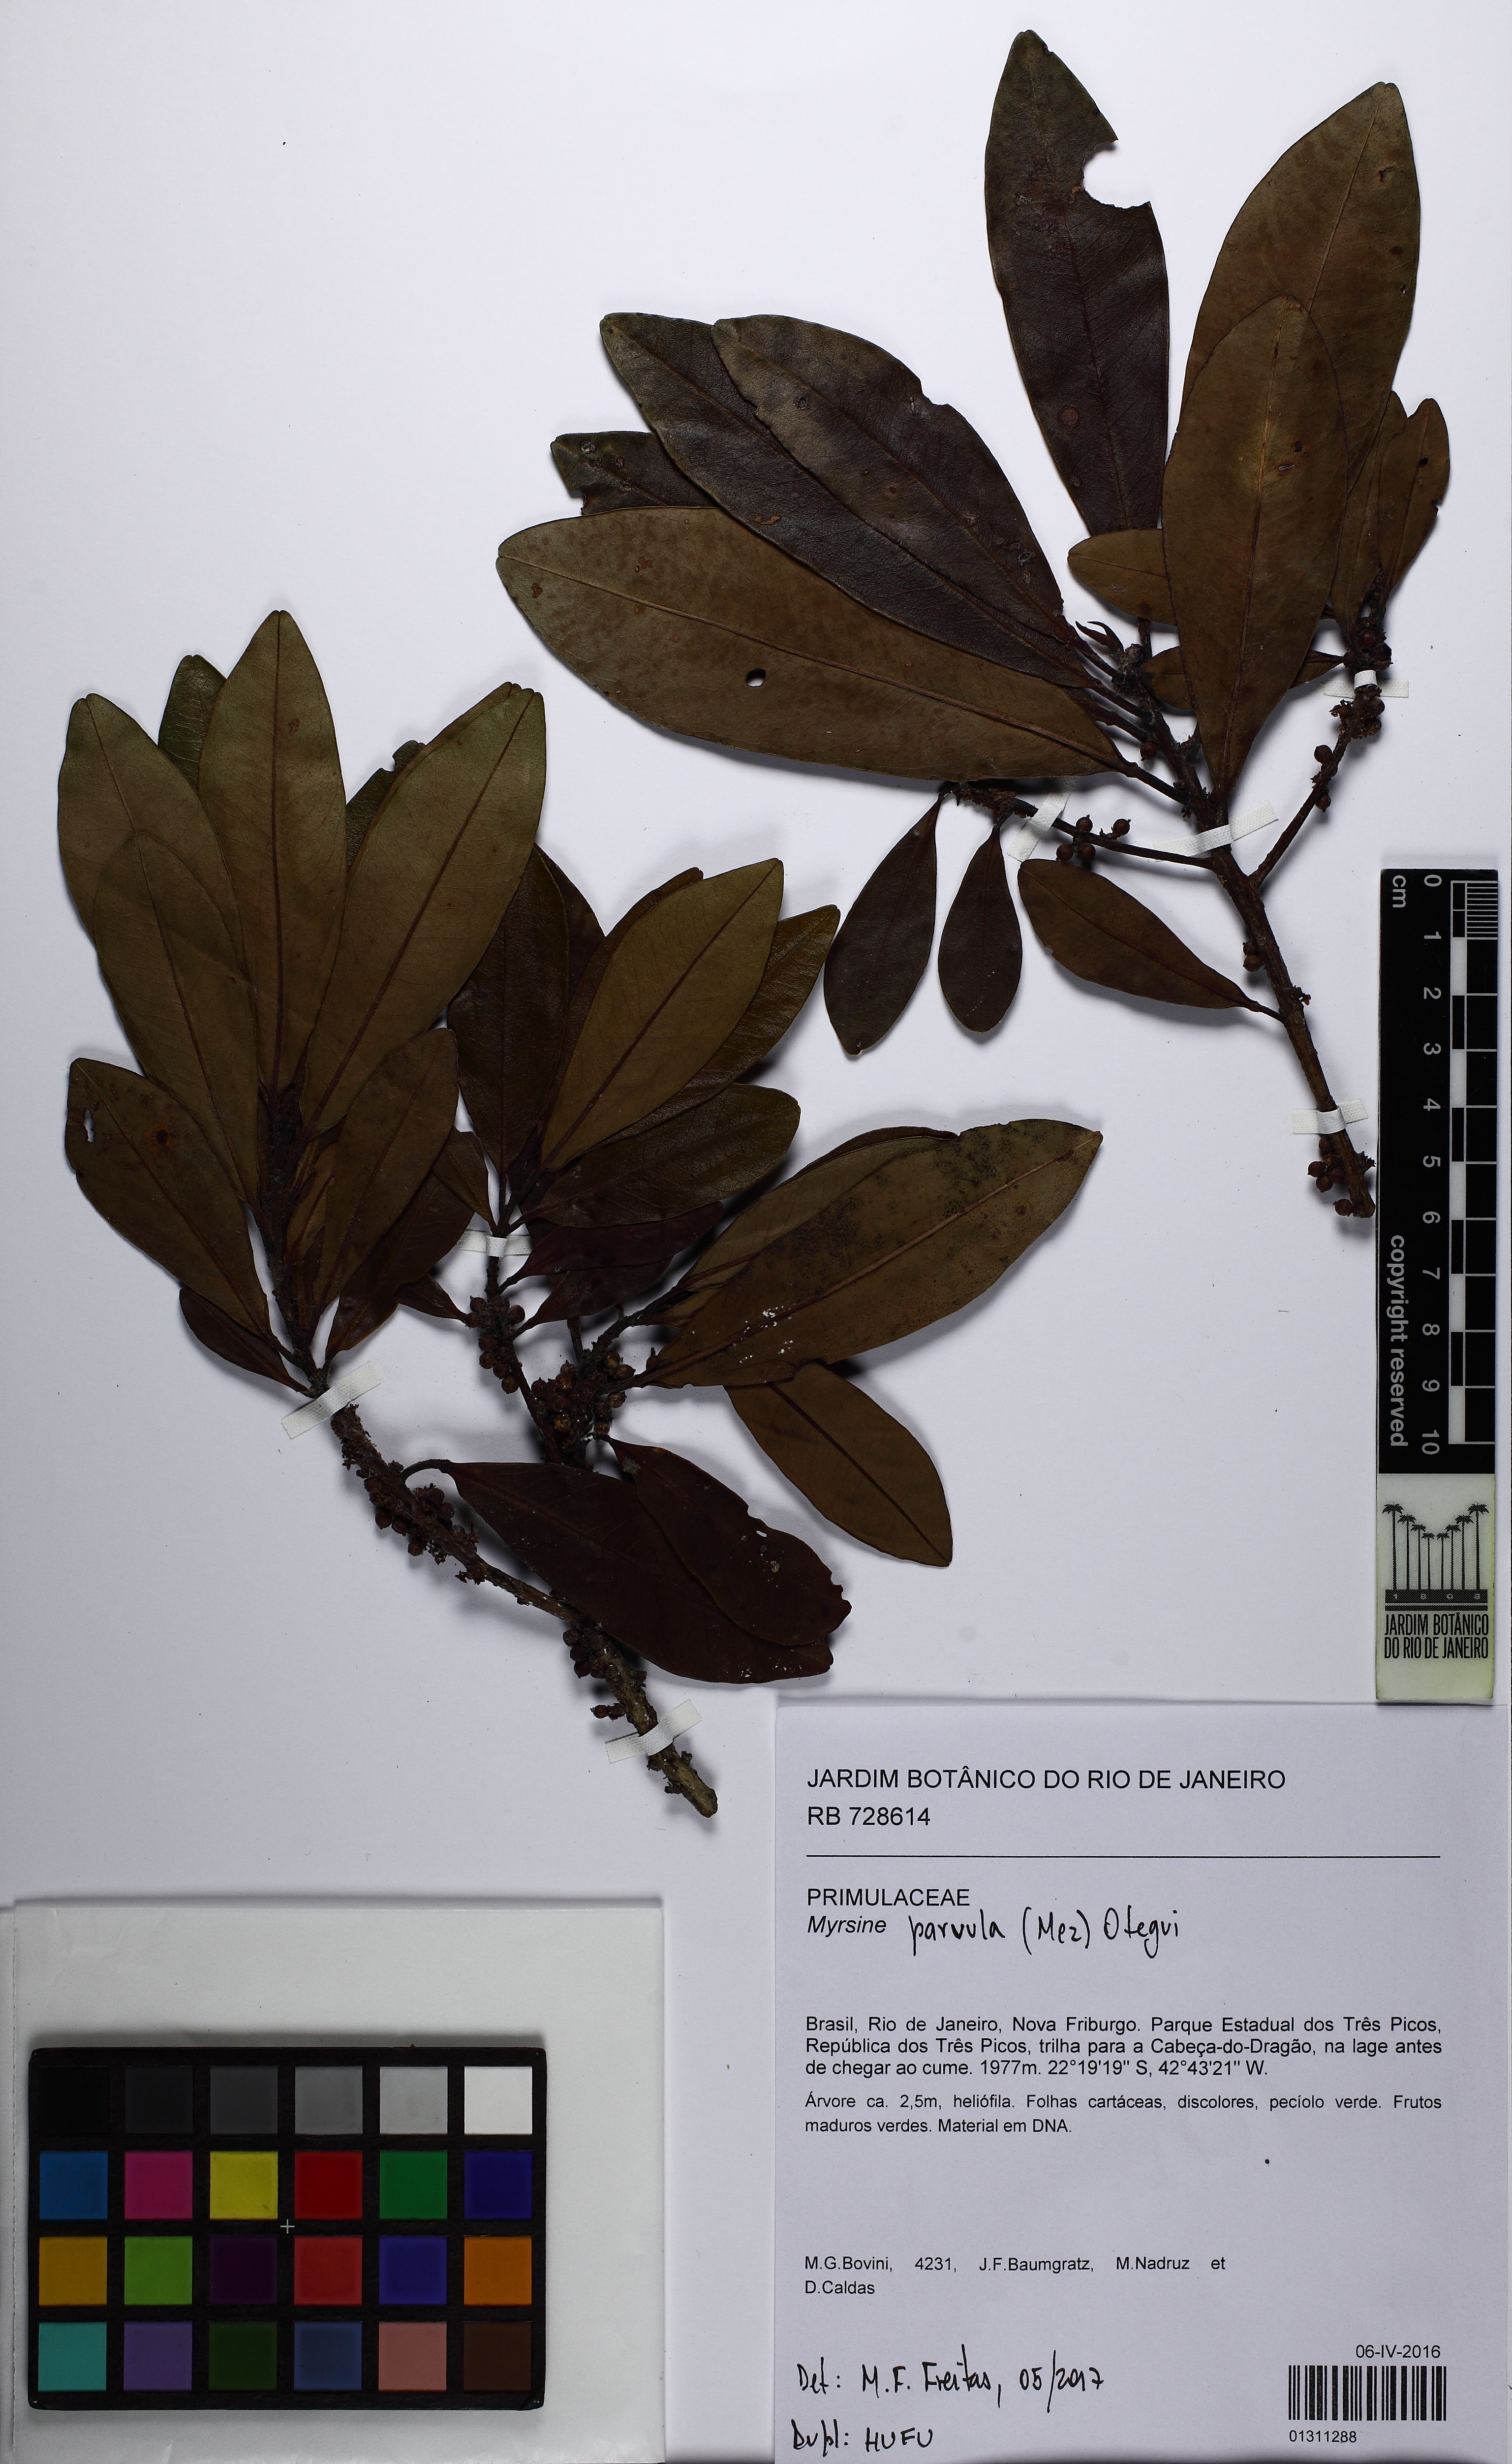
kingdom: Plantae
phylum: Tracheophyta
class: Magnoliopsida
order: Ericales
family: Primulaceae
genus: Myrsine
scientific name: Myrsine lorentziana
